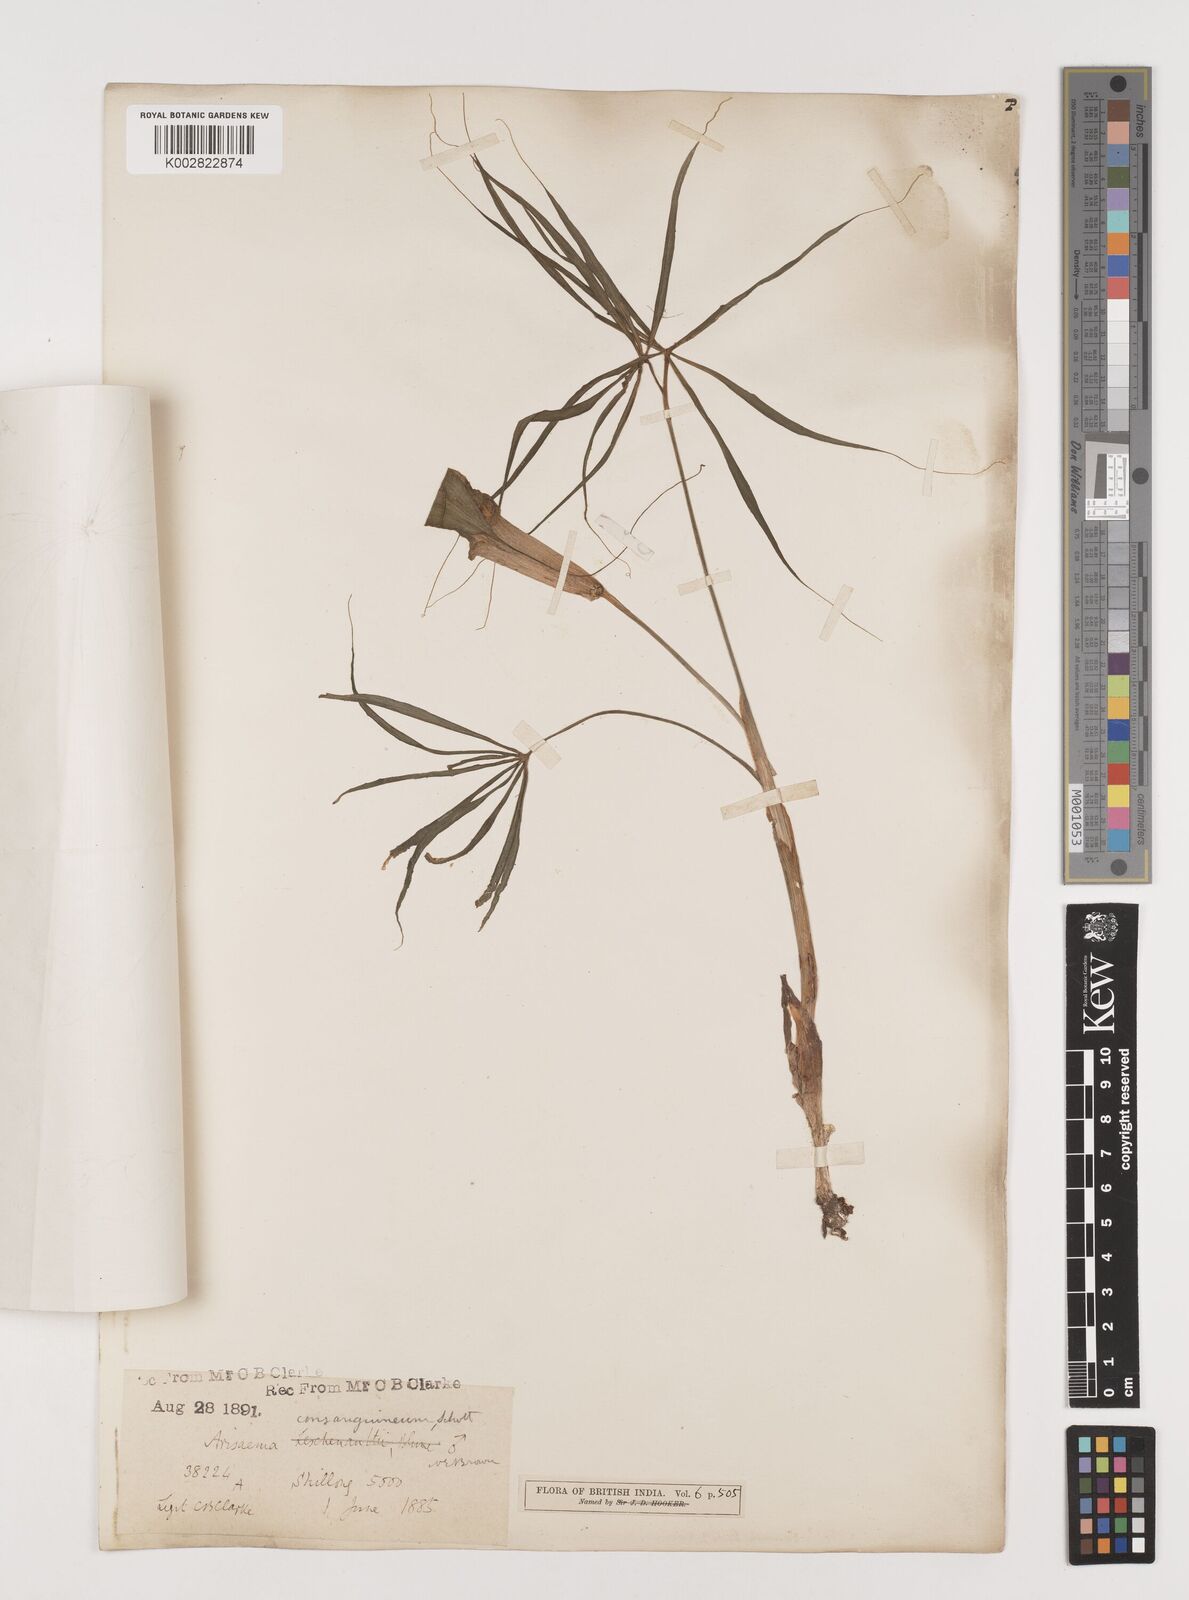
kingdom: Plantae
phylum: Tracheophyta
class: Liliopsida
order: Alismatales
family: Araceae
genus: Arisaema
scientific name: Arisaema erubescens
